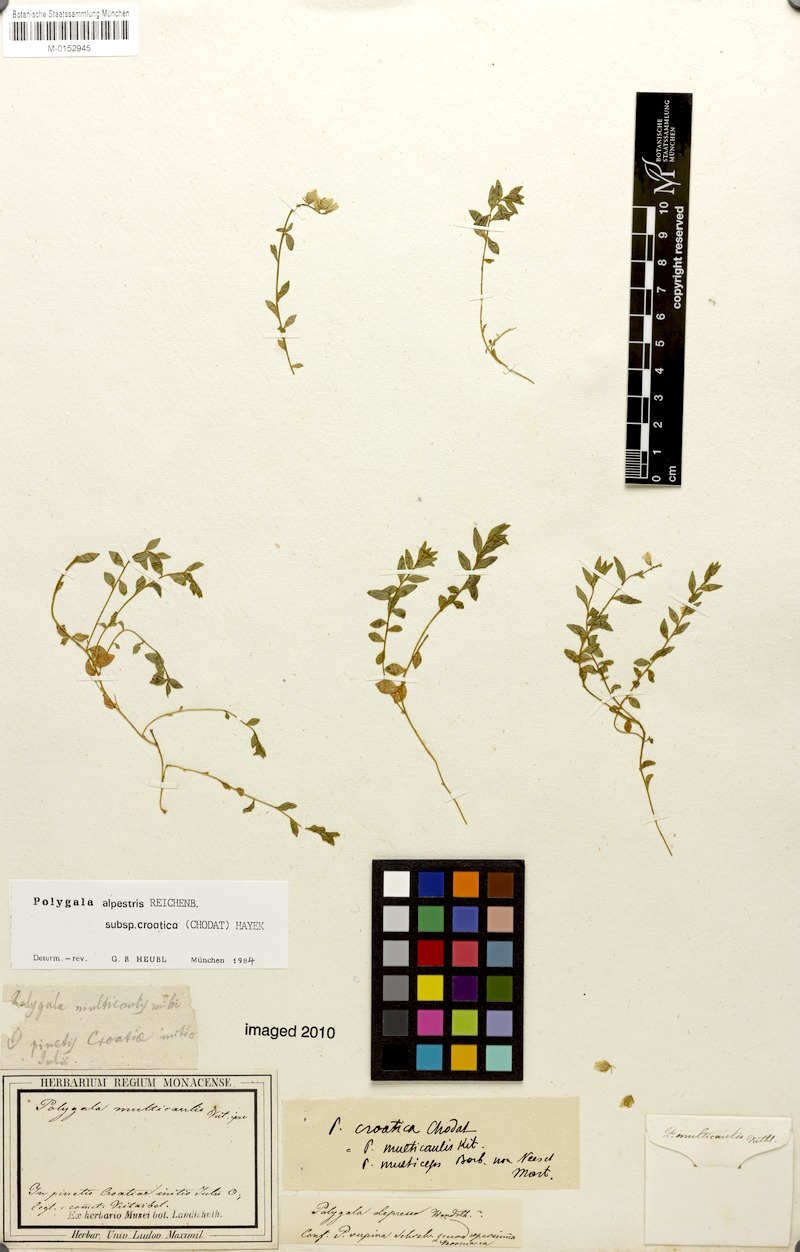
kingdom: Plantae
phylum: Tracheophyta
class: Magnoliopsida
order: Fabales
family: Polygalaceae
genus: Polygala
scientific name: Polygala alpestris
